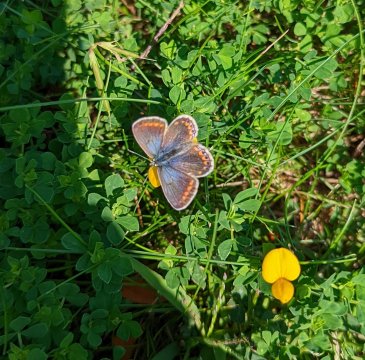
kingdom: Animalia
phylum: Arthropoda
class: Insecta
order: Lepidoptera
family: Lycaenidae
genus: Polyommatus
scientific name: Polyommatus icarus
